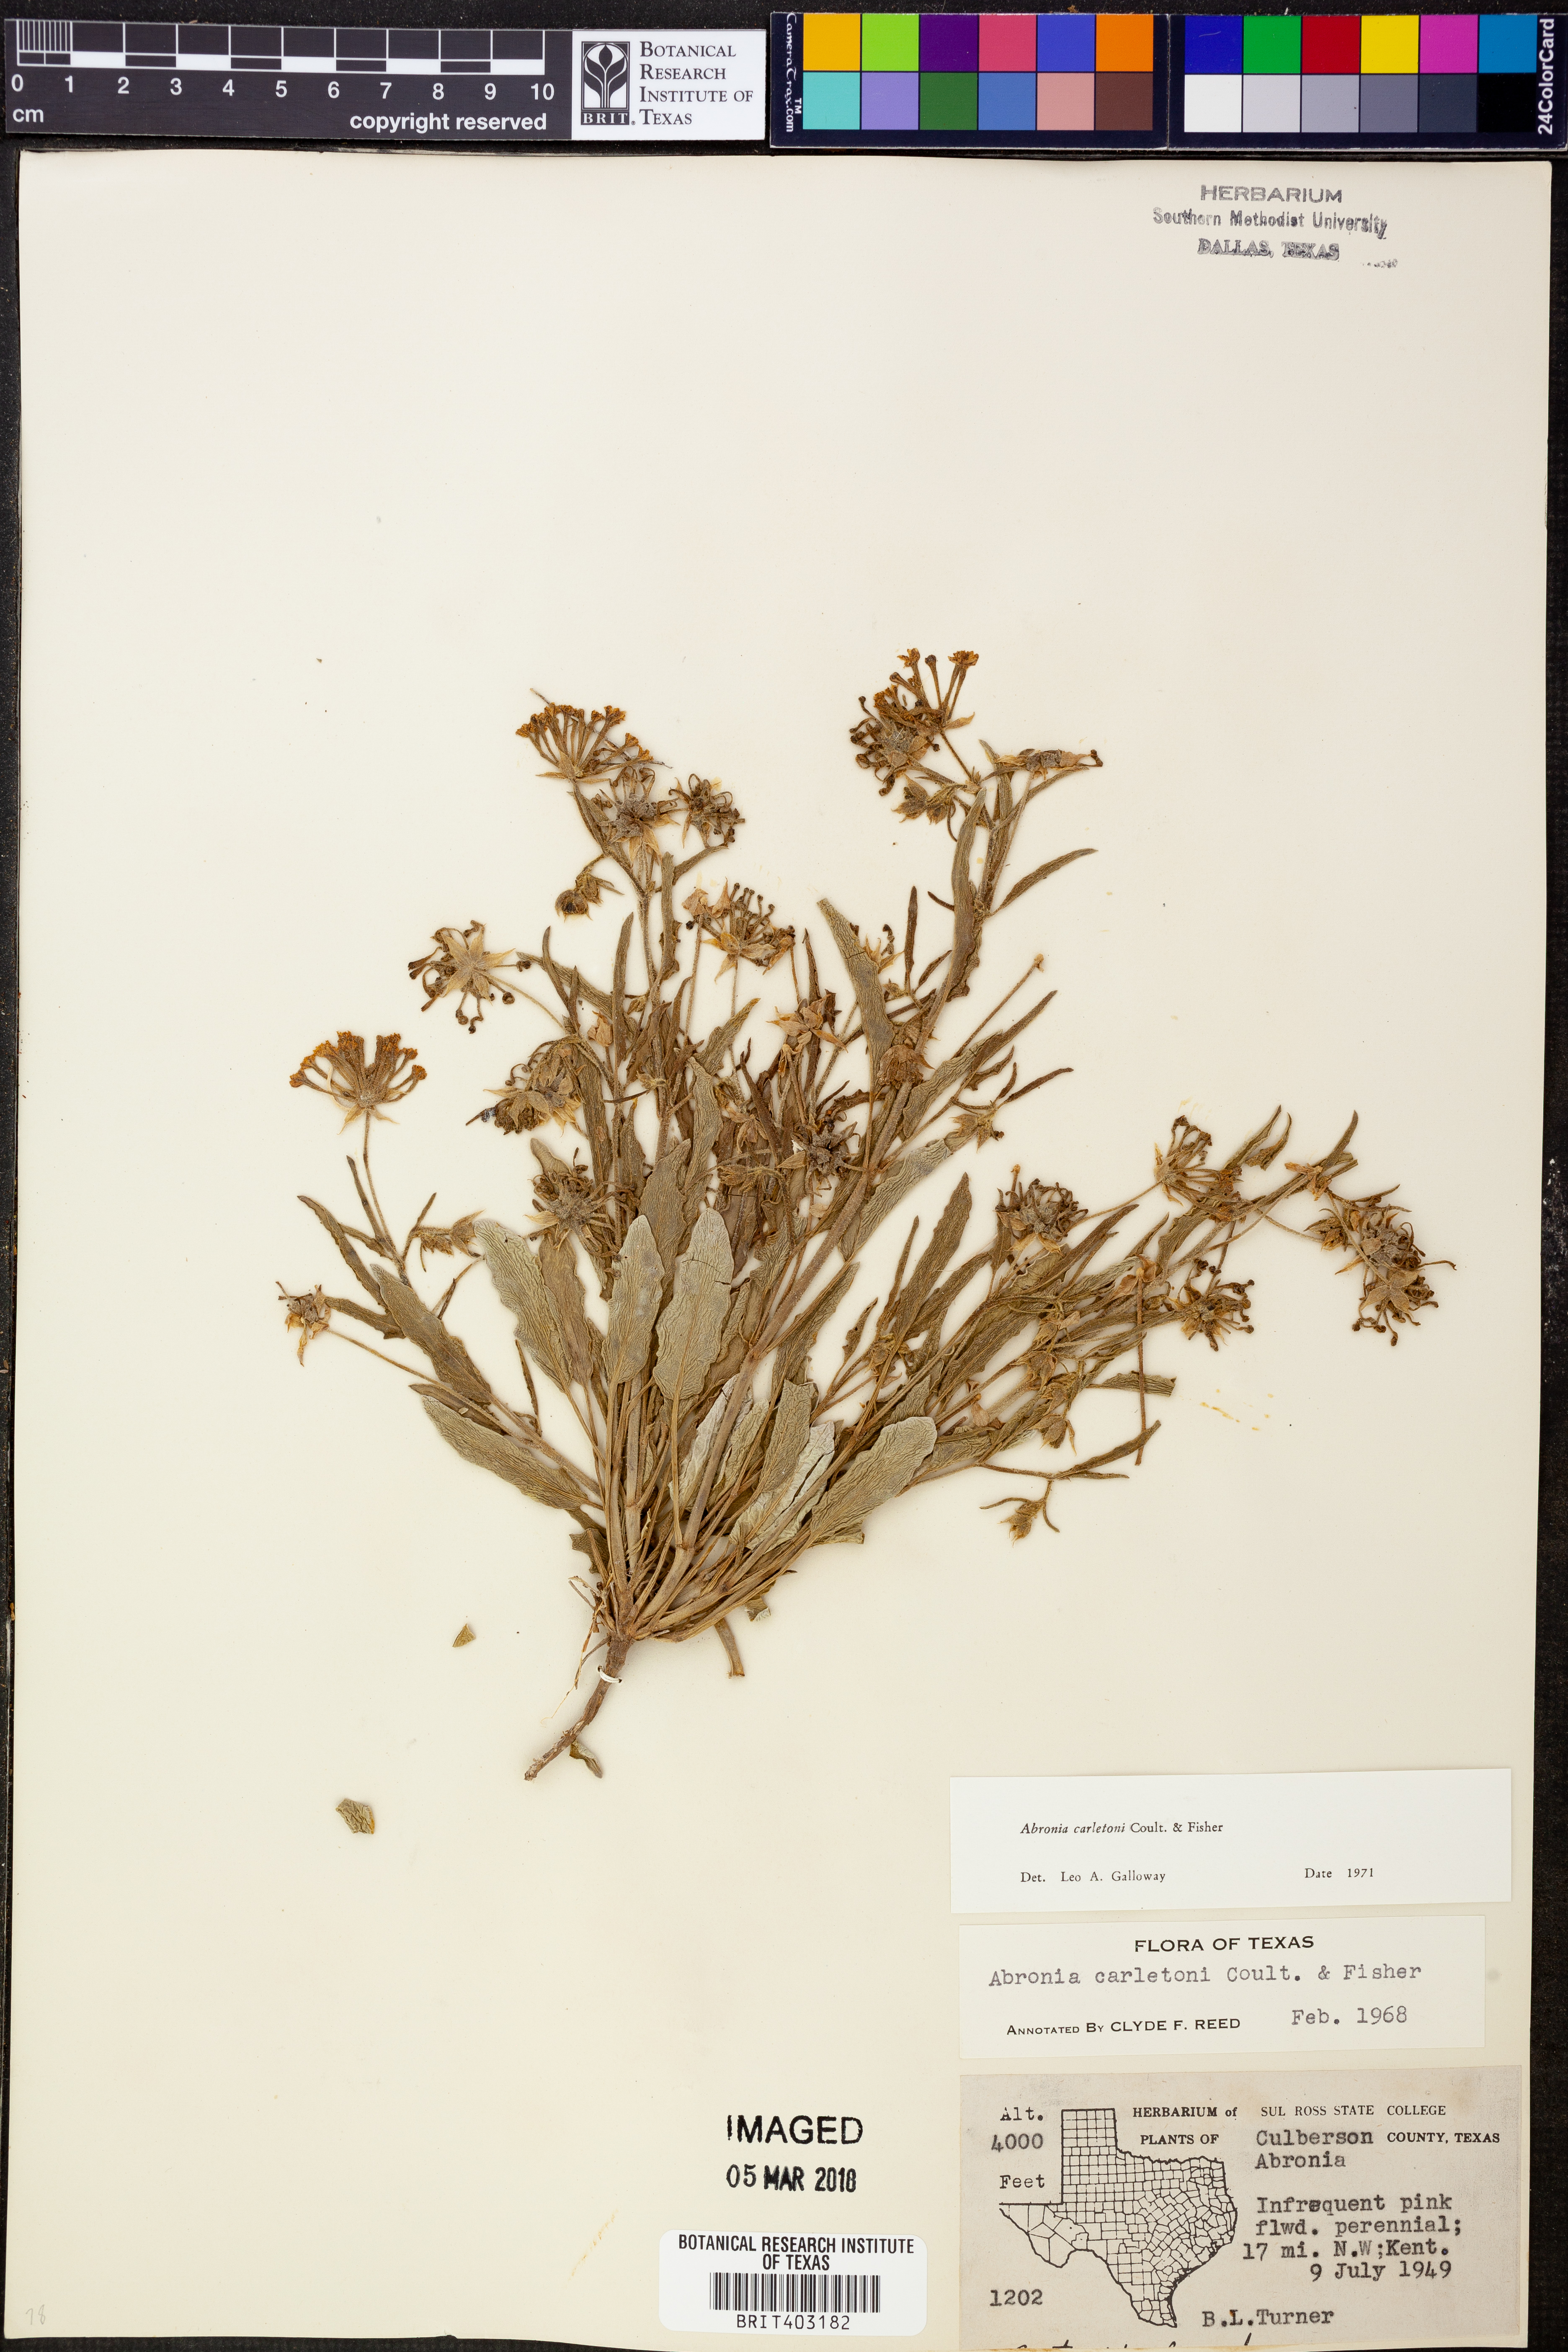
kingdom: Plantae
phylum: Tracheophyta
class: Magnoliopsida
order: Caryophyllales
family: Nyctaginaceae
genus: Abronia
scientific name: Abronia carletonii
